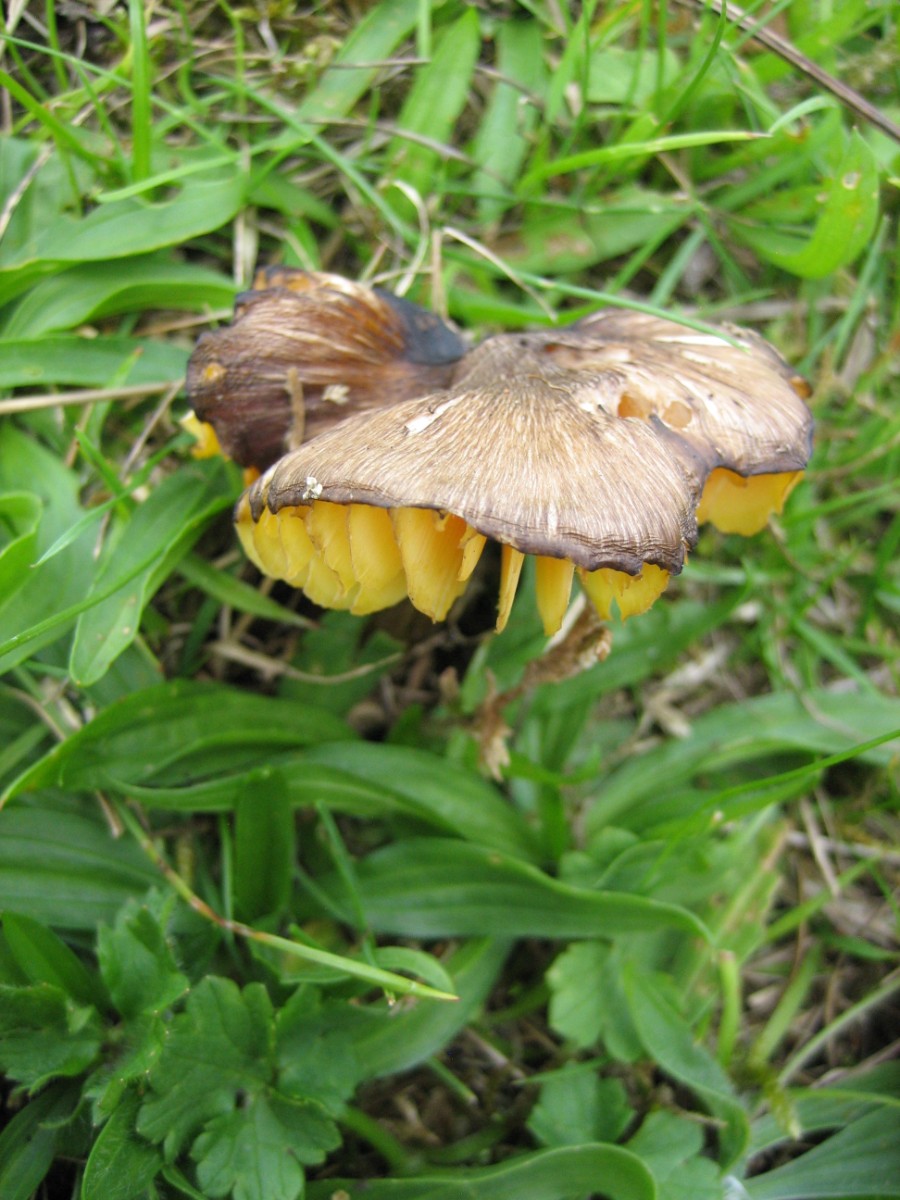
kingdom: Fungi
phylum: Basidiomycota
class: Agaricomycetes
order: Agaricales
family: Hygrophoraceae
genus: Hygrocybe
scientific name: Hygrocybe spadicea
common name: daddelbrun vokshat
